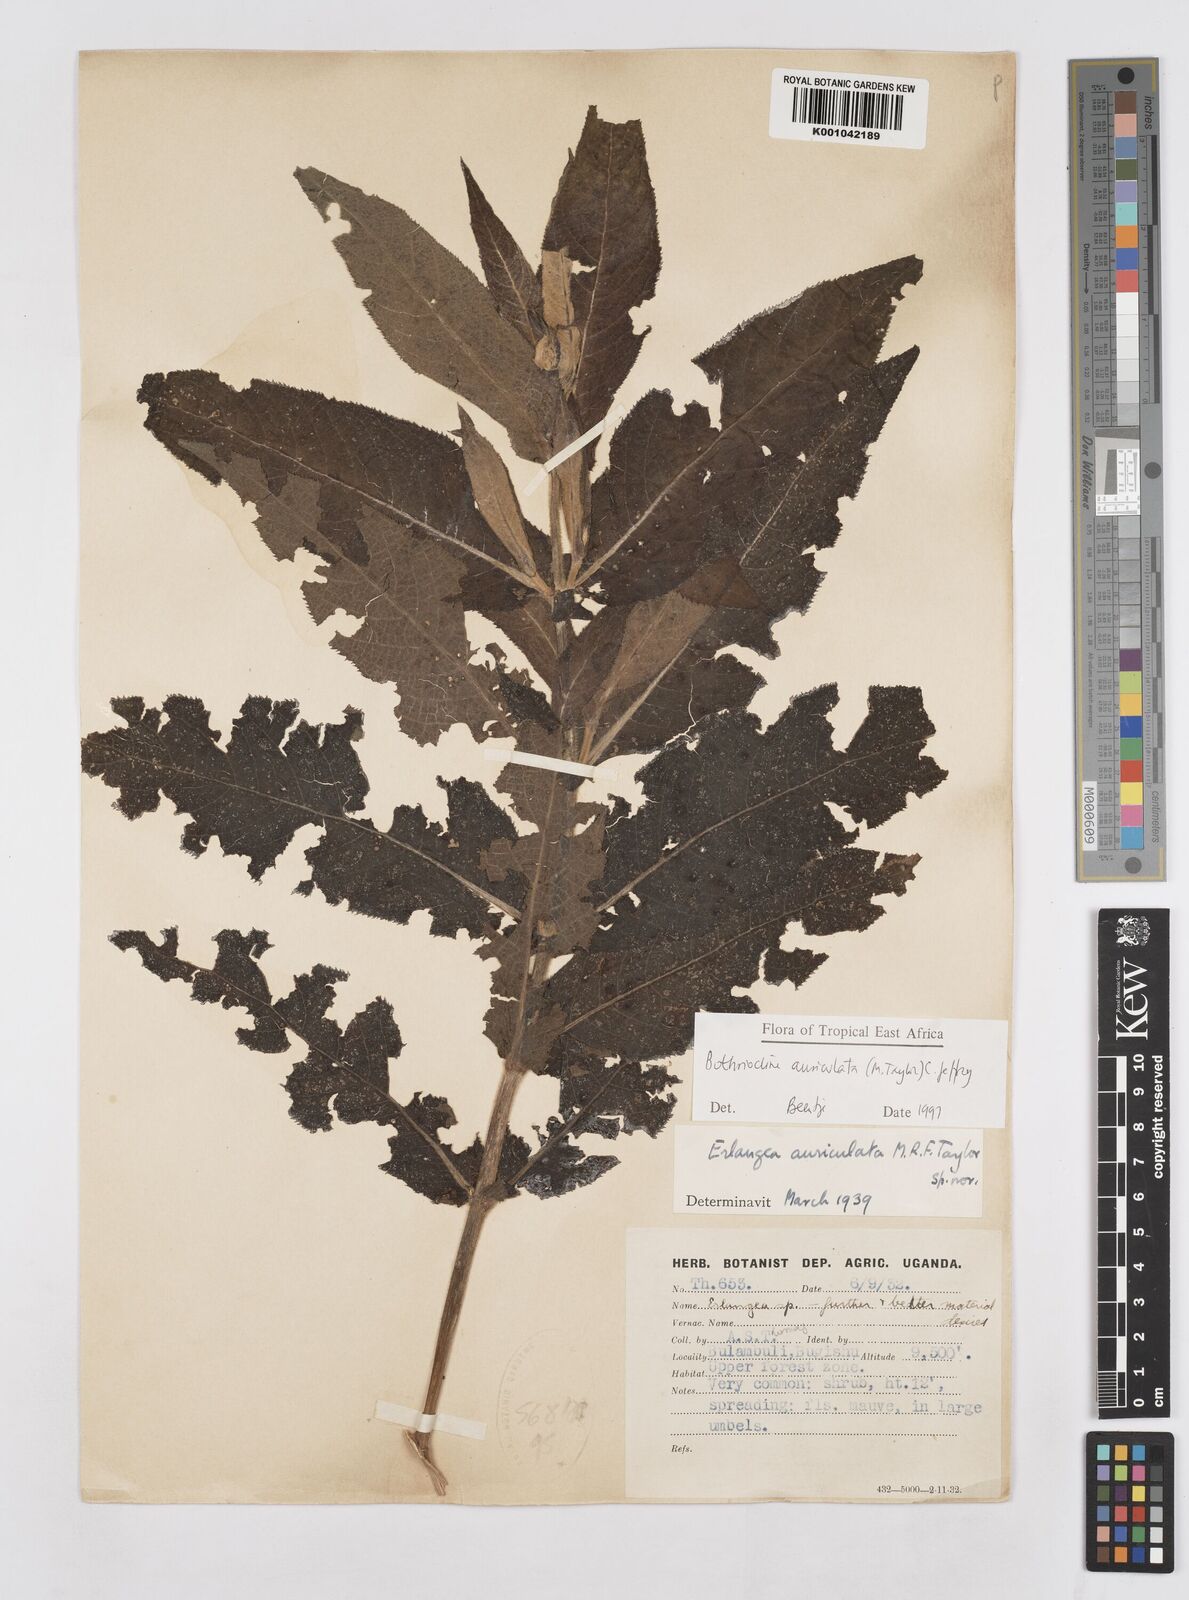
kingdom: Plantae
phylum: Tracheophyta
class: Magnoliopsida
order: Asterales
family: Asteraceae
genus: Bothriocline
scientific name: Bothriocline auriculata
